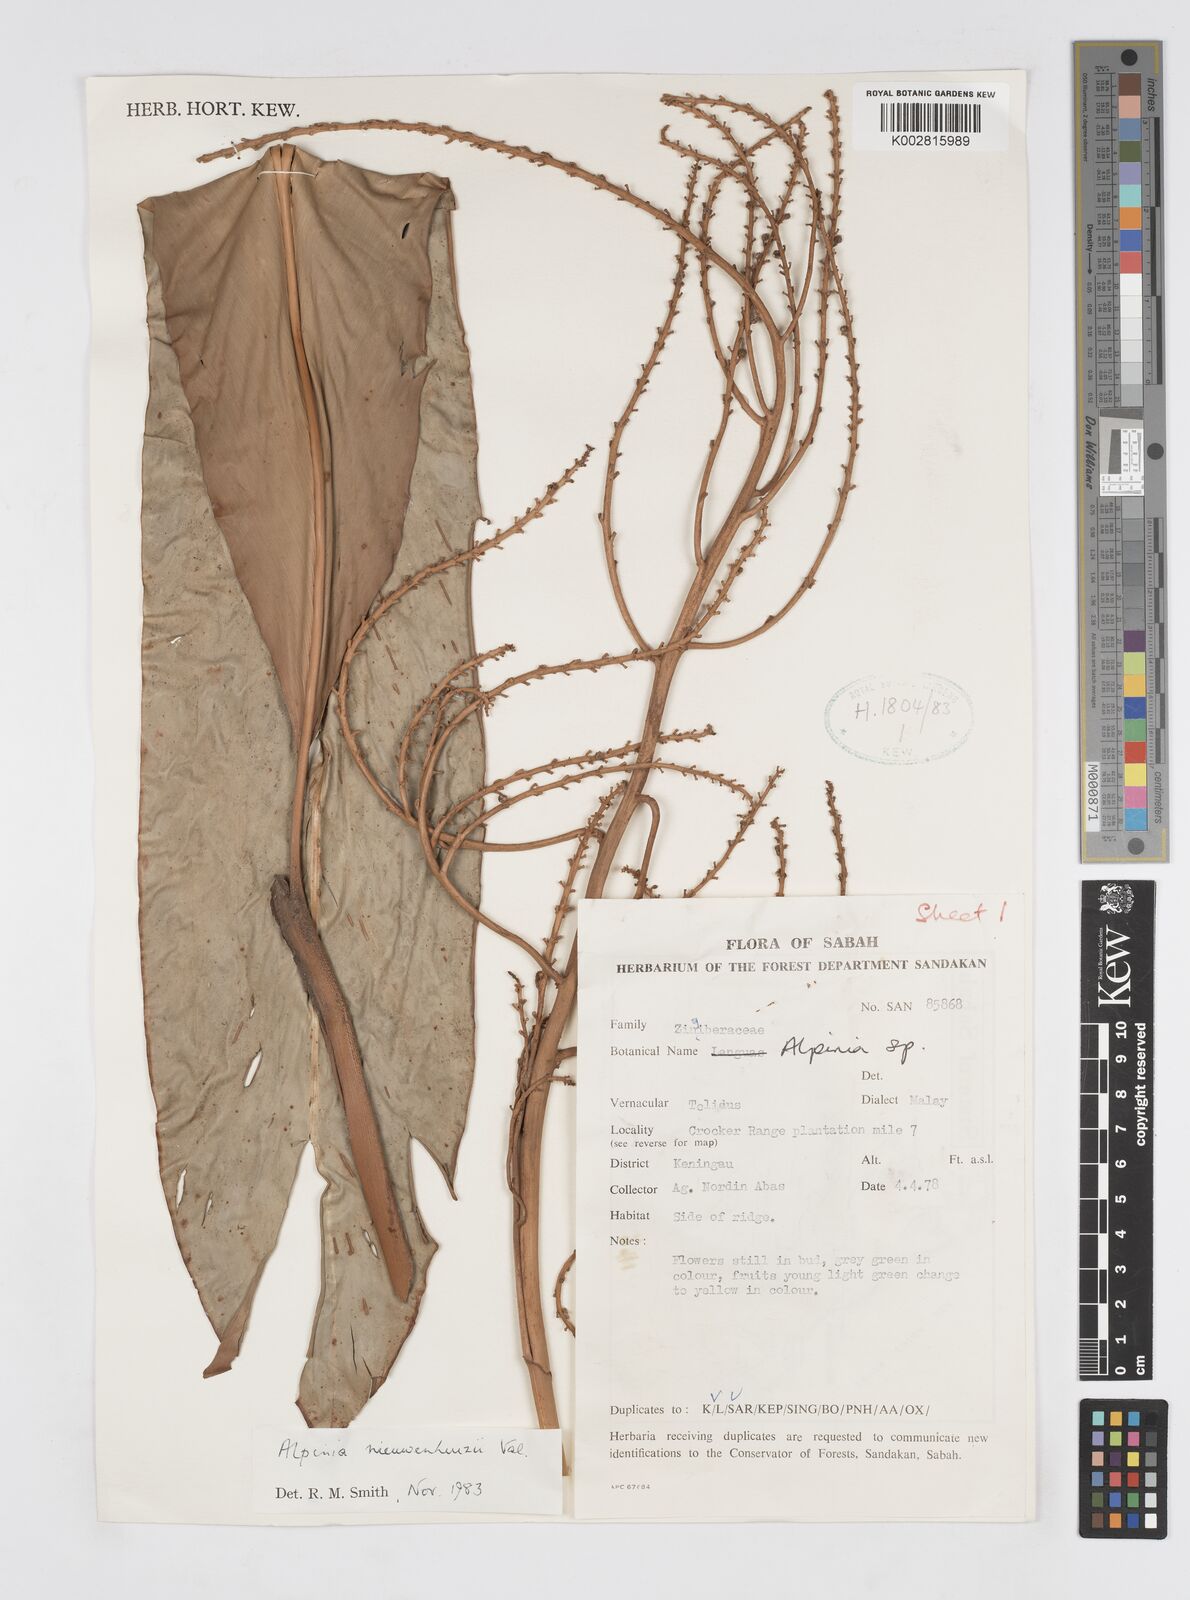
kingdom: Plantae
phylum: Tracheophyta
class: Liliopsida
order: Zingiberales
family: Zingiberaceae
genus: Alpinia
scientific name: Alpinia nieuwenhuizii
